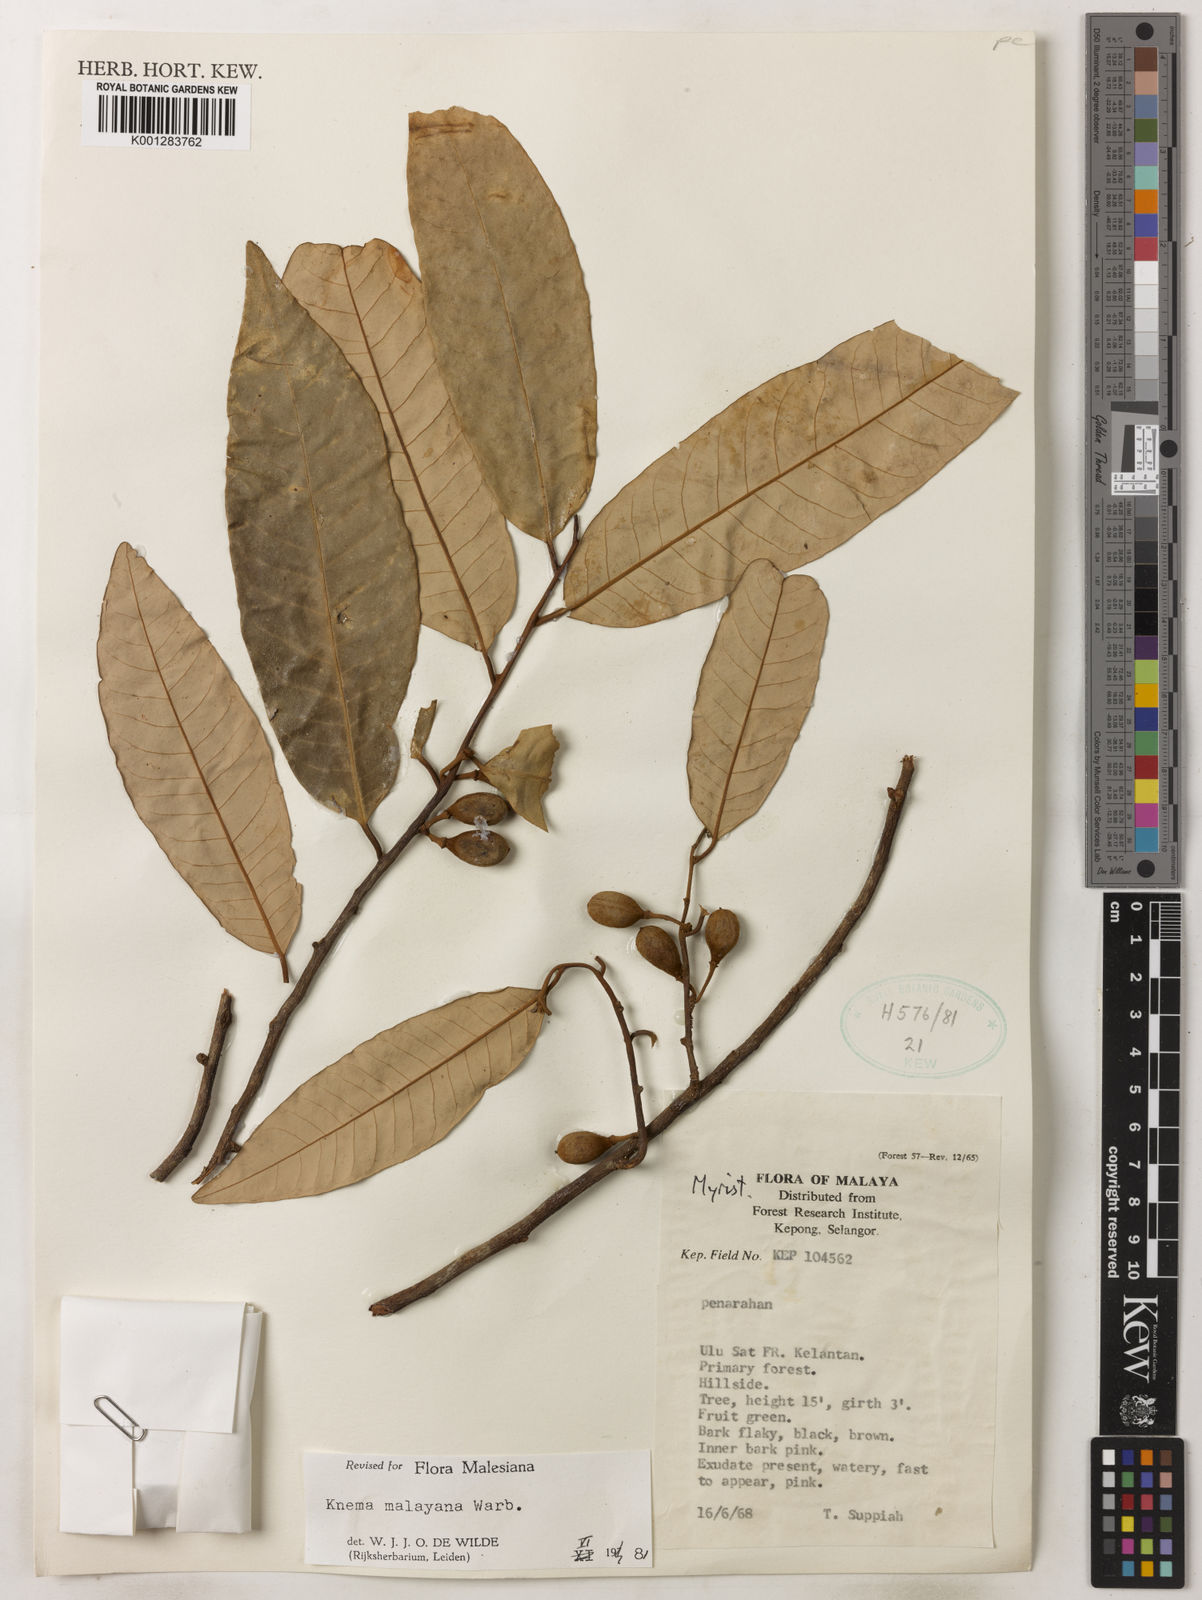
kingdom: Plantae
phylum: Tracheophyta
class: Magnoliopsida
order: Magnoliales
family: Myristicaceae
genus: Knema
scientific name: Knema malayana
